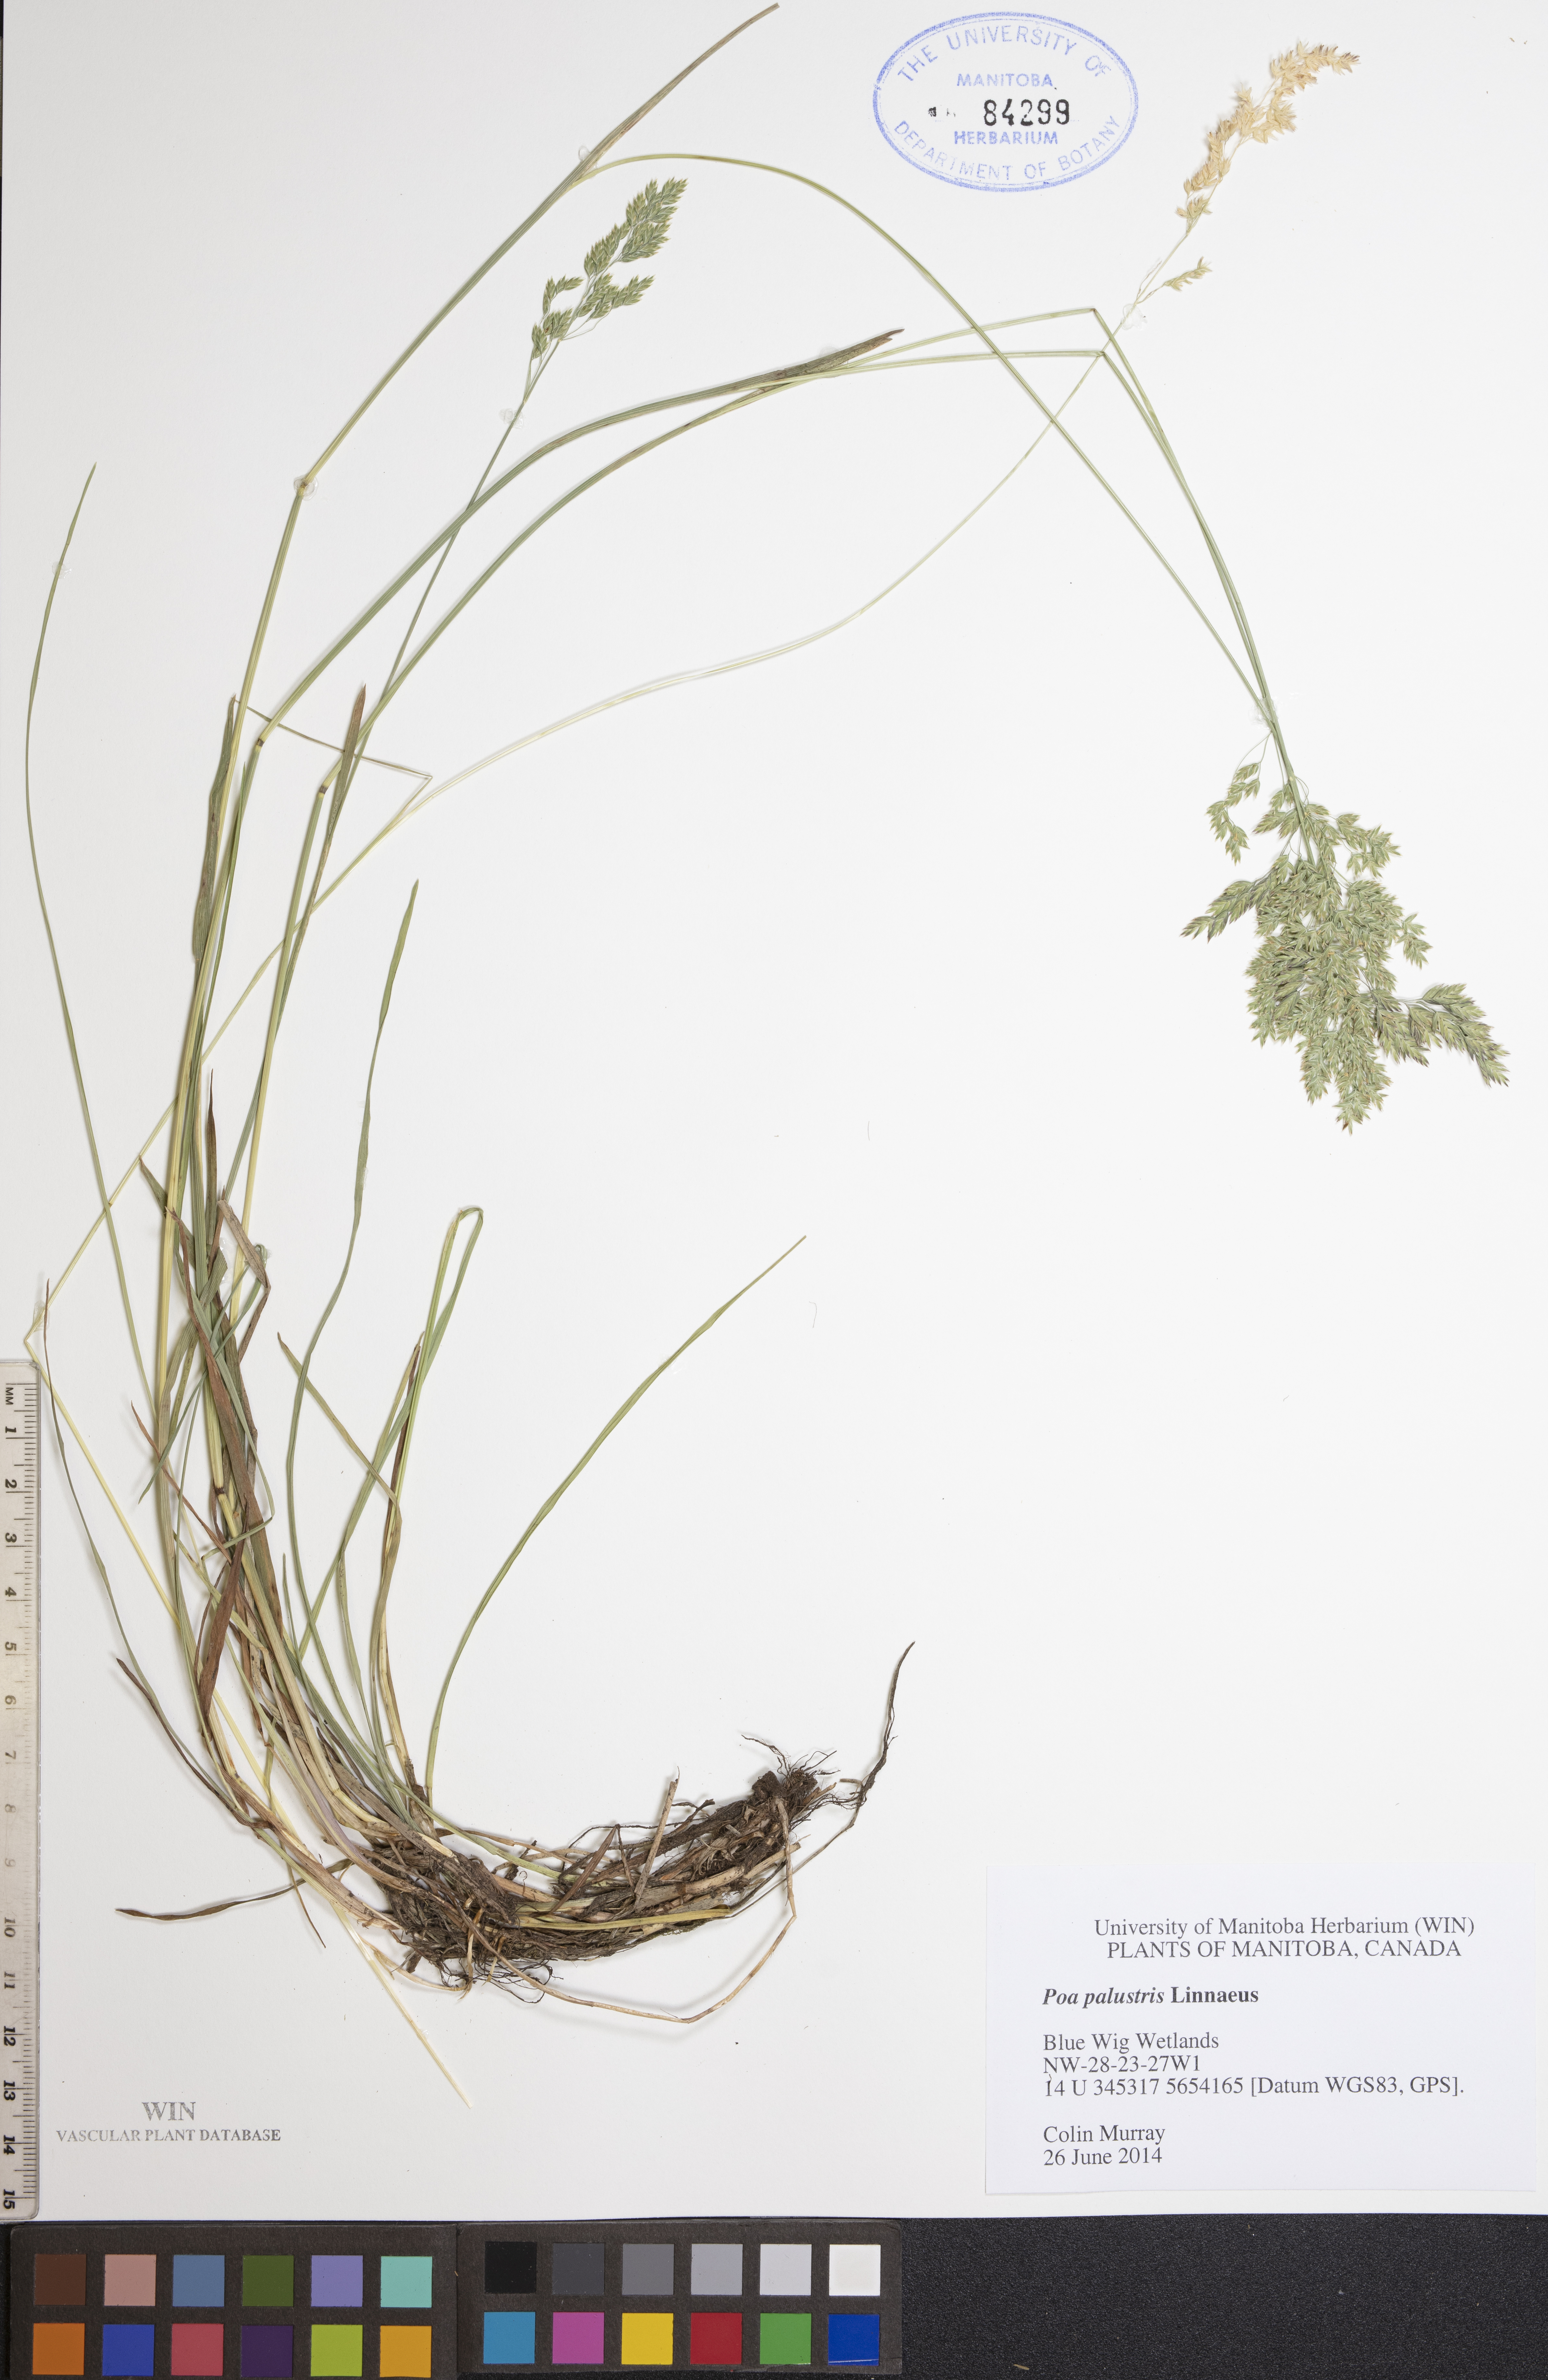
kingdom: Plantae
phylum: Tracheophyta
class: Liliopsida
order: Poales
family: Poaceae
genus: Poa
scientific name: Poa palustris
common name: Swamp meadow-grass
